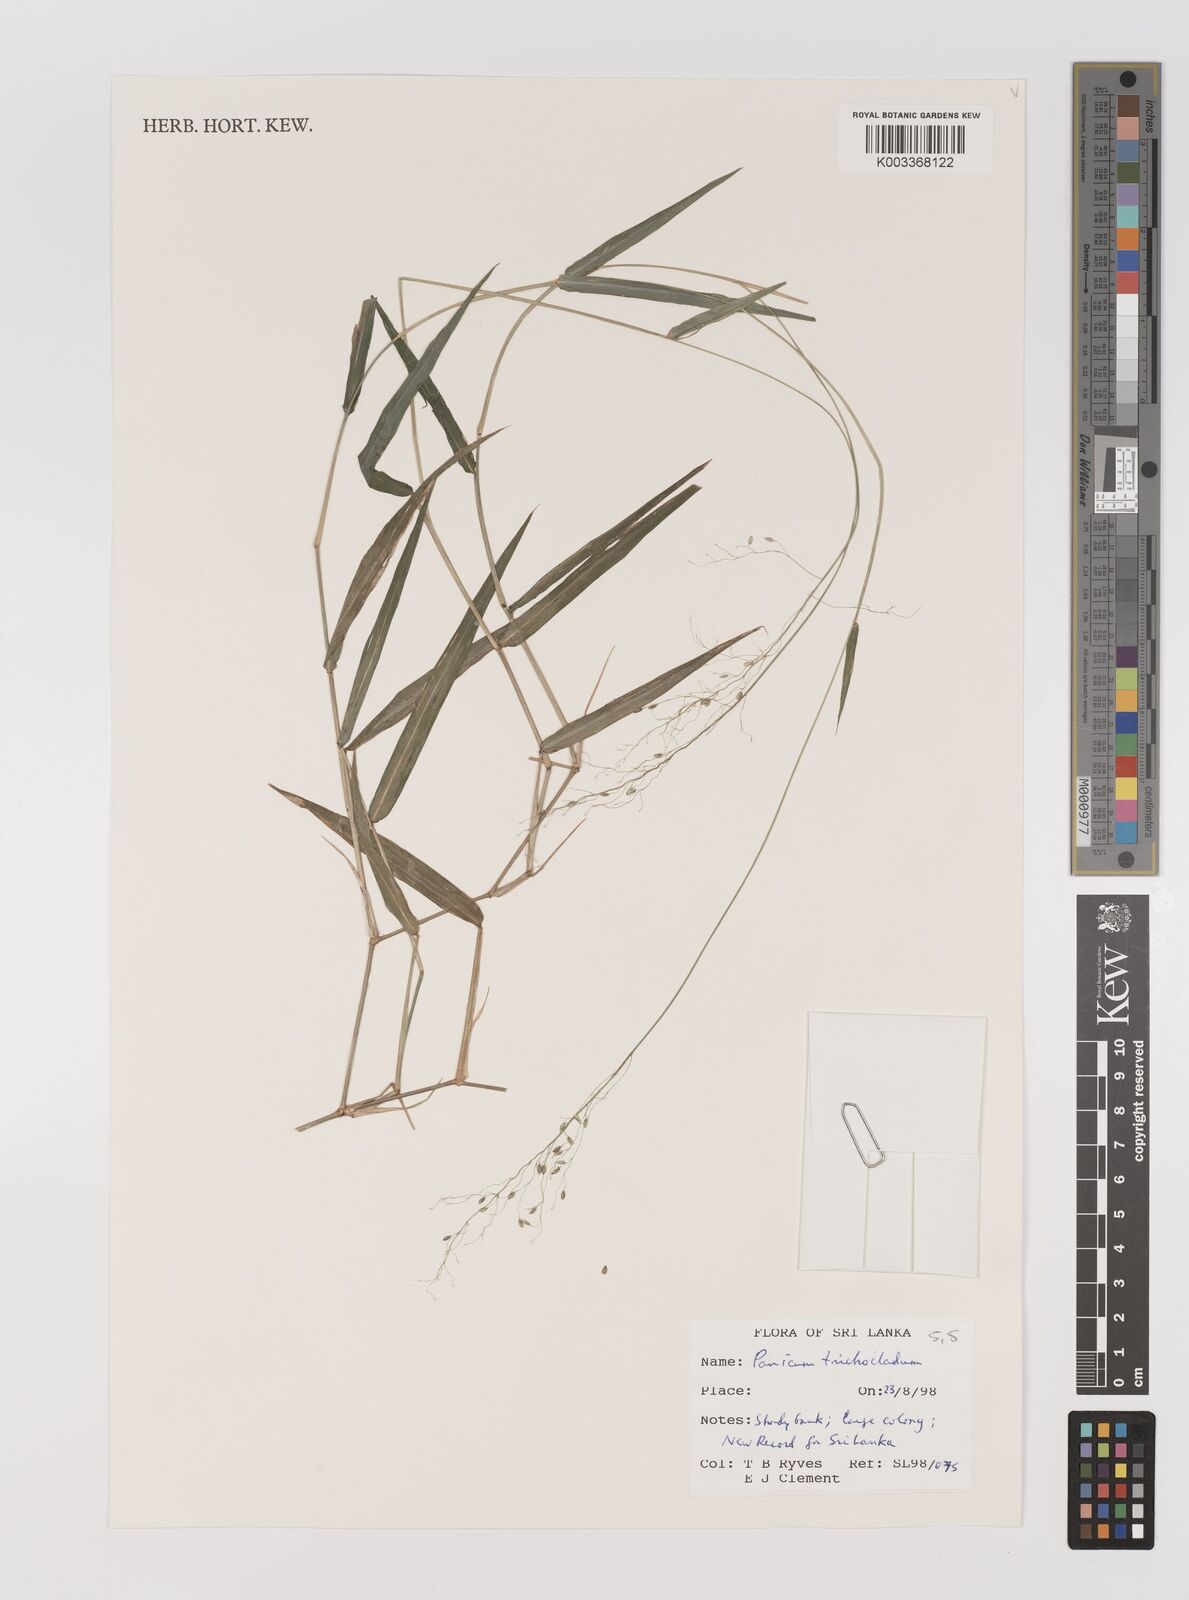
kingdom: Plantae
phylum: Tracheophyta
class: Liliopsida
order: Poales
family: Poaceae
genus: Panicum
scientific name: Panicum trichocladum
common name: Donkey grass
